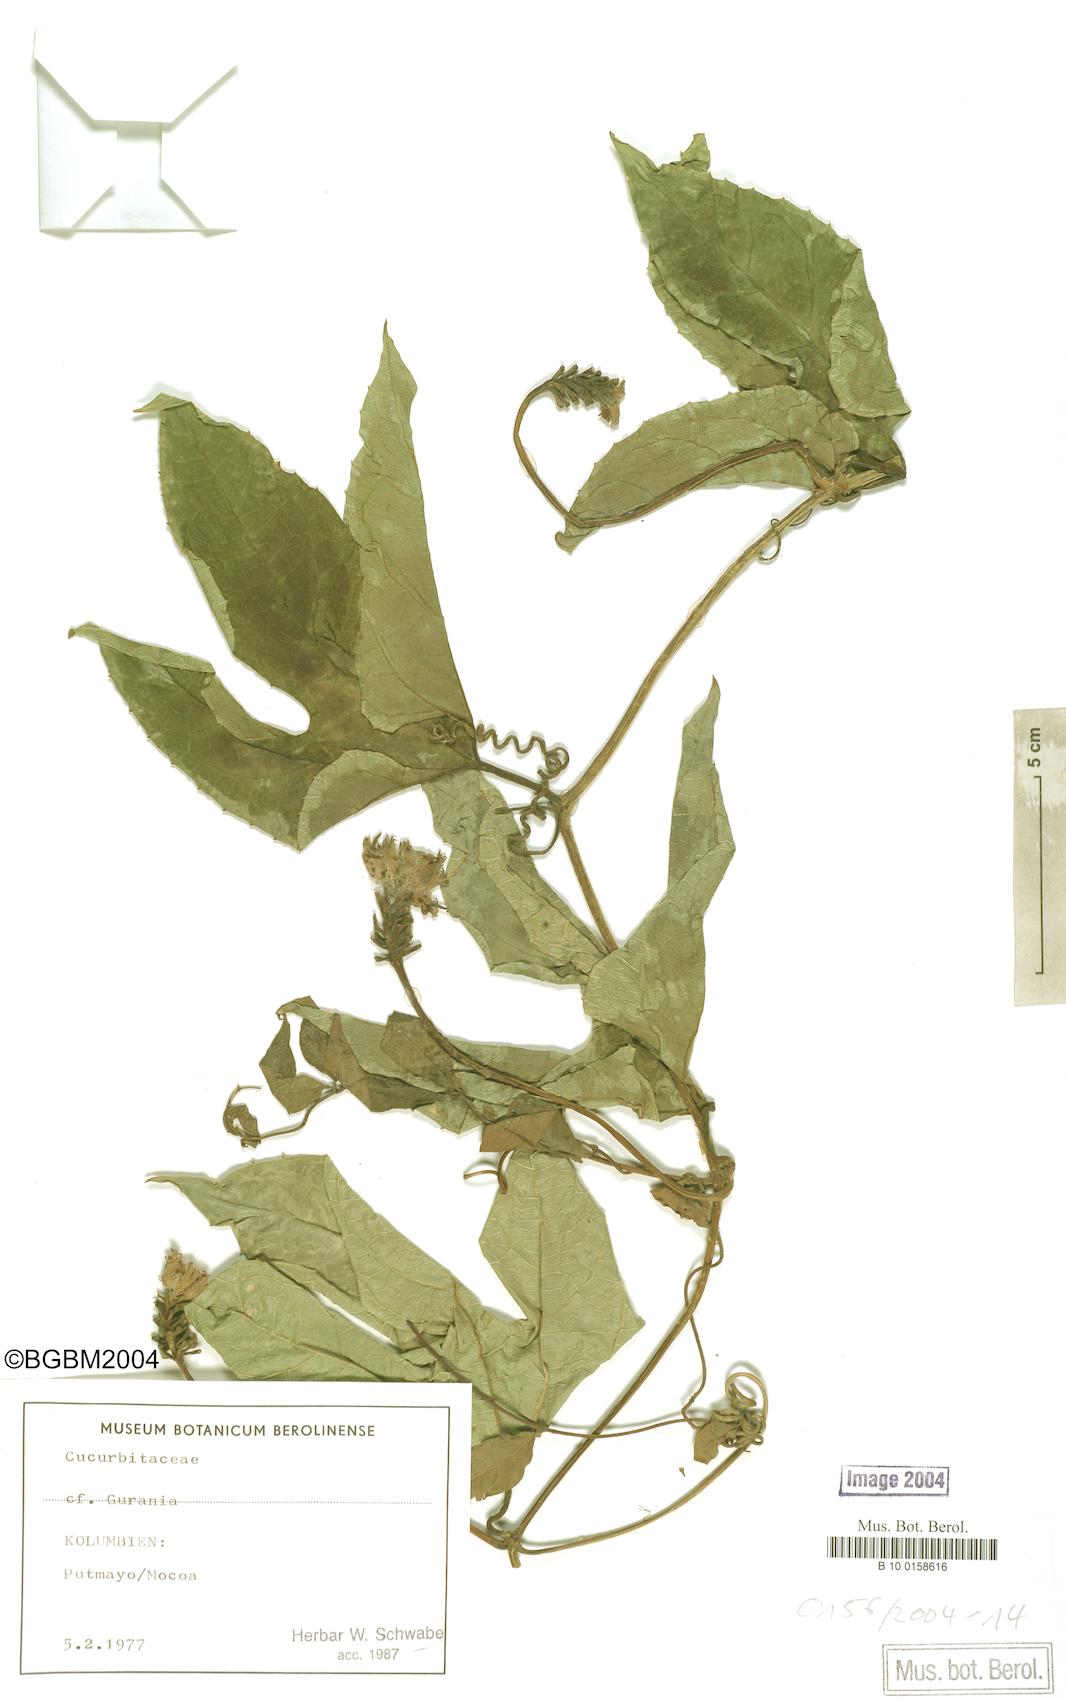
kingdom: Plantae
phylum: Tracheophyta
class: Magnoliopsida
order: Cucurbitales
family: Cucurbitaceae
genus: Gurania
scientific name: Gurania
